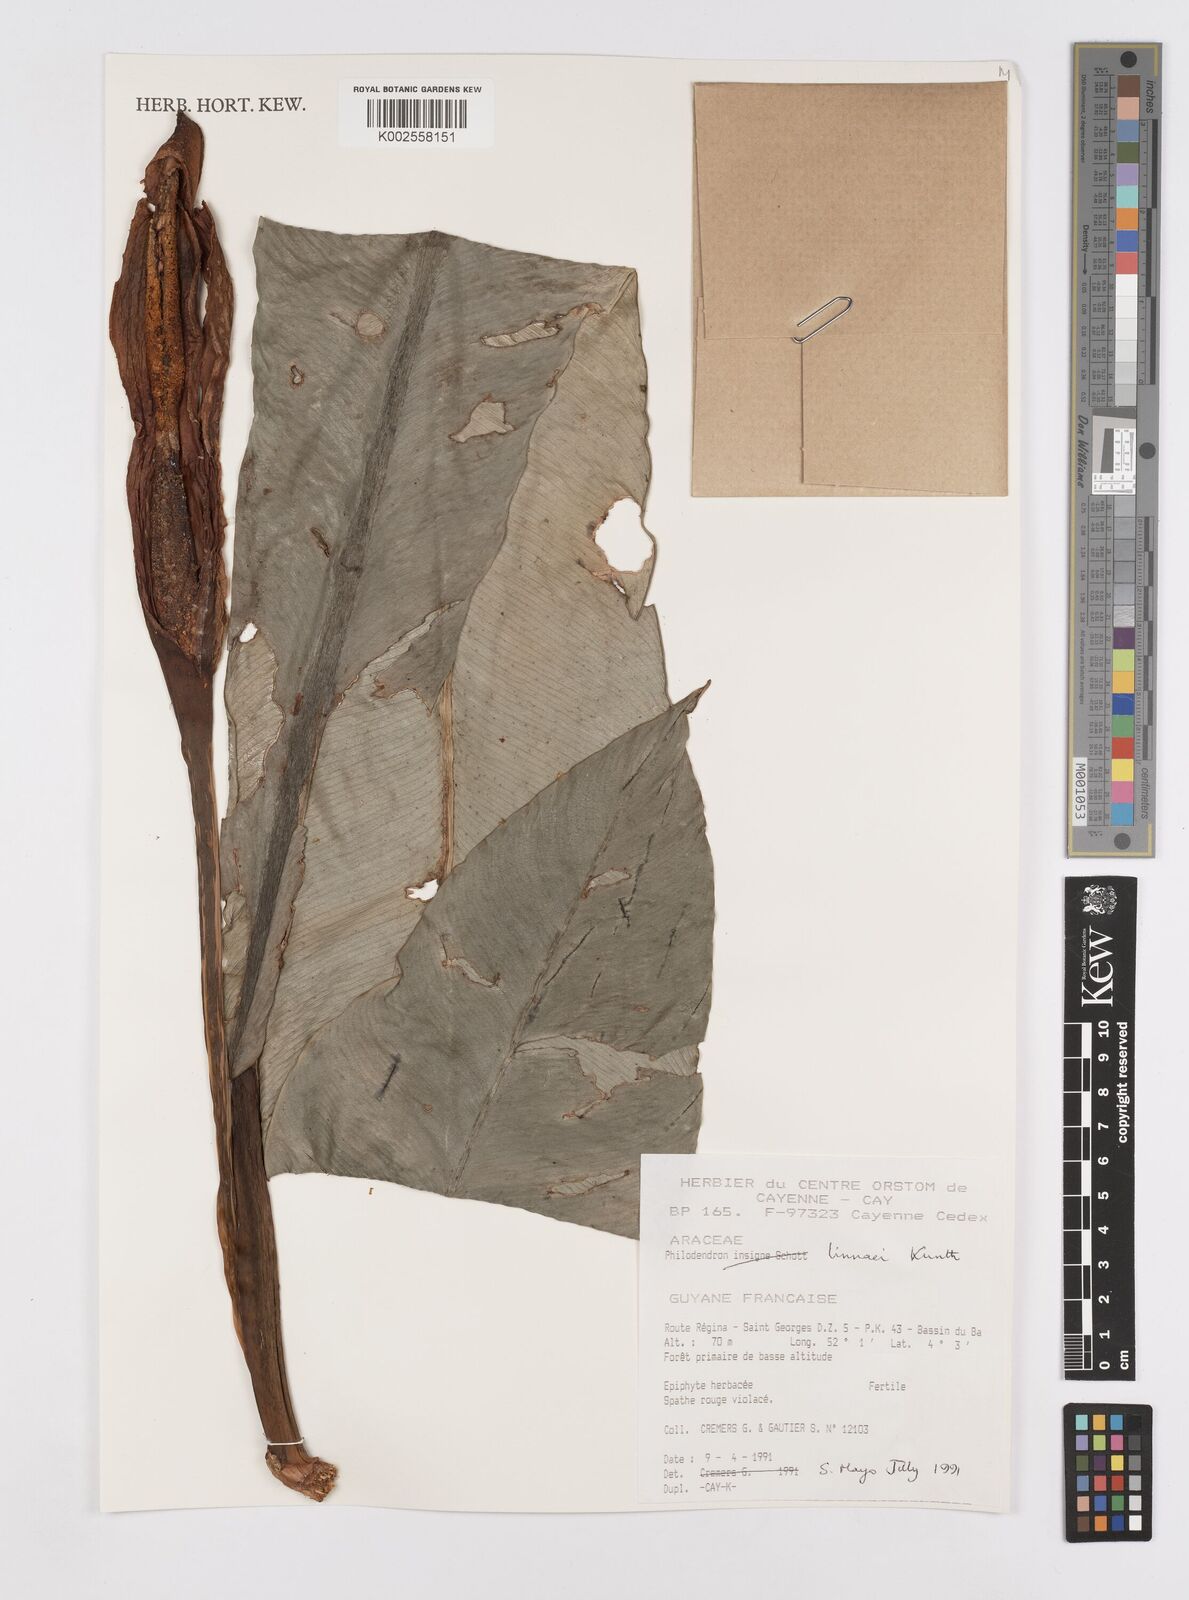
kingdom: Plantae
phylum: Tracheophyta
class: Liliopsida
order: Alismatales
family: Araceae
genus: Philodendron
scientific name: Philodendron linnaei
